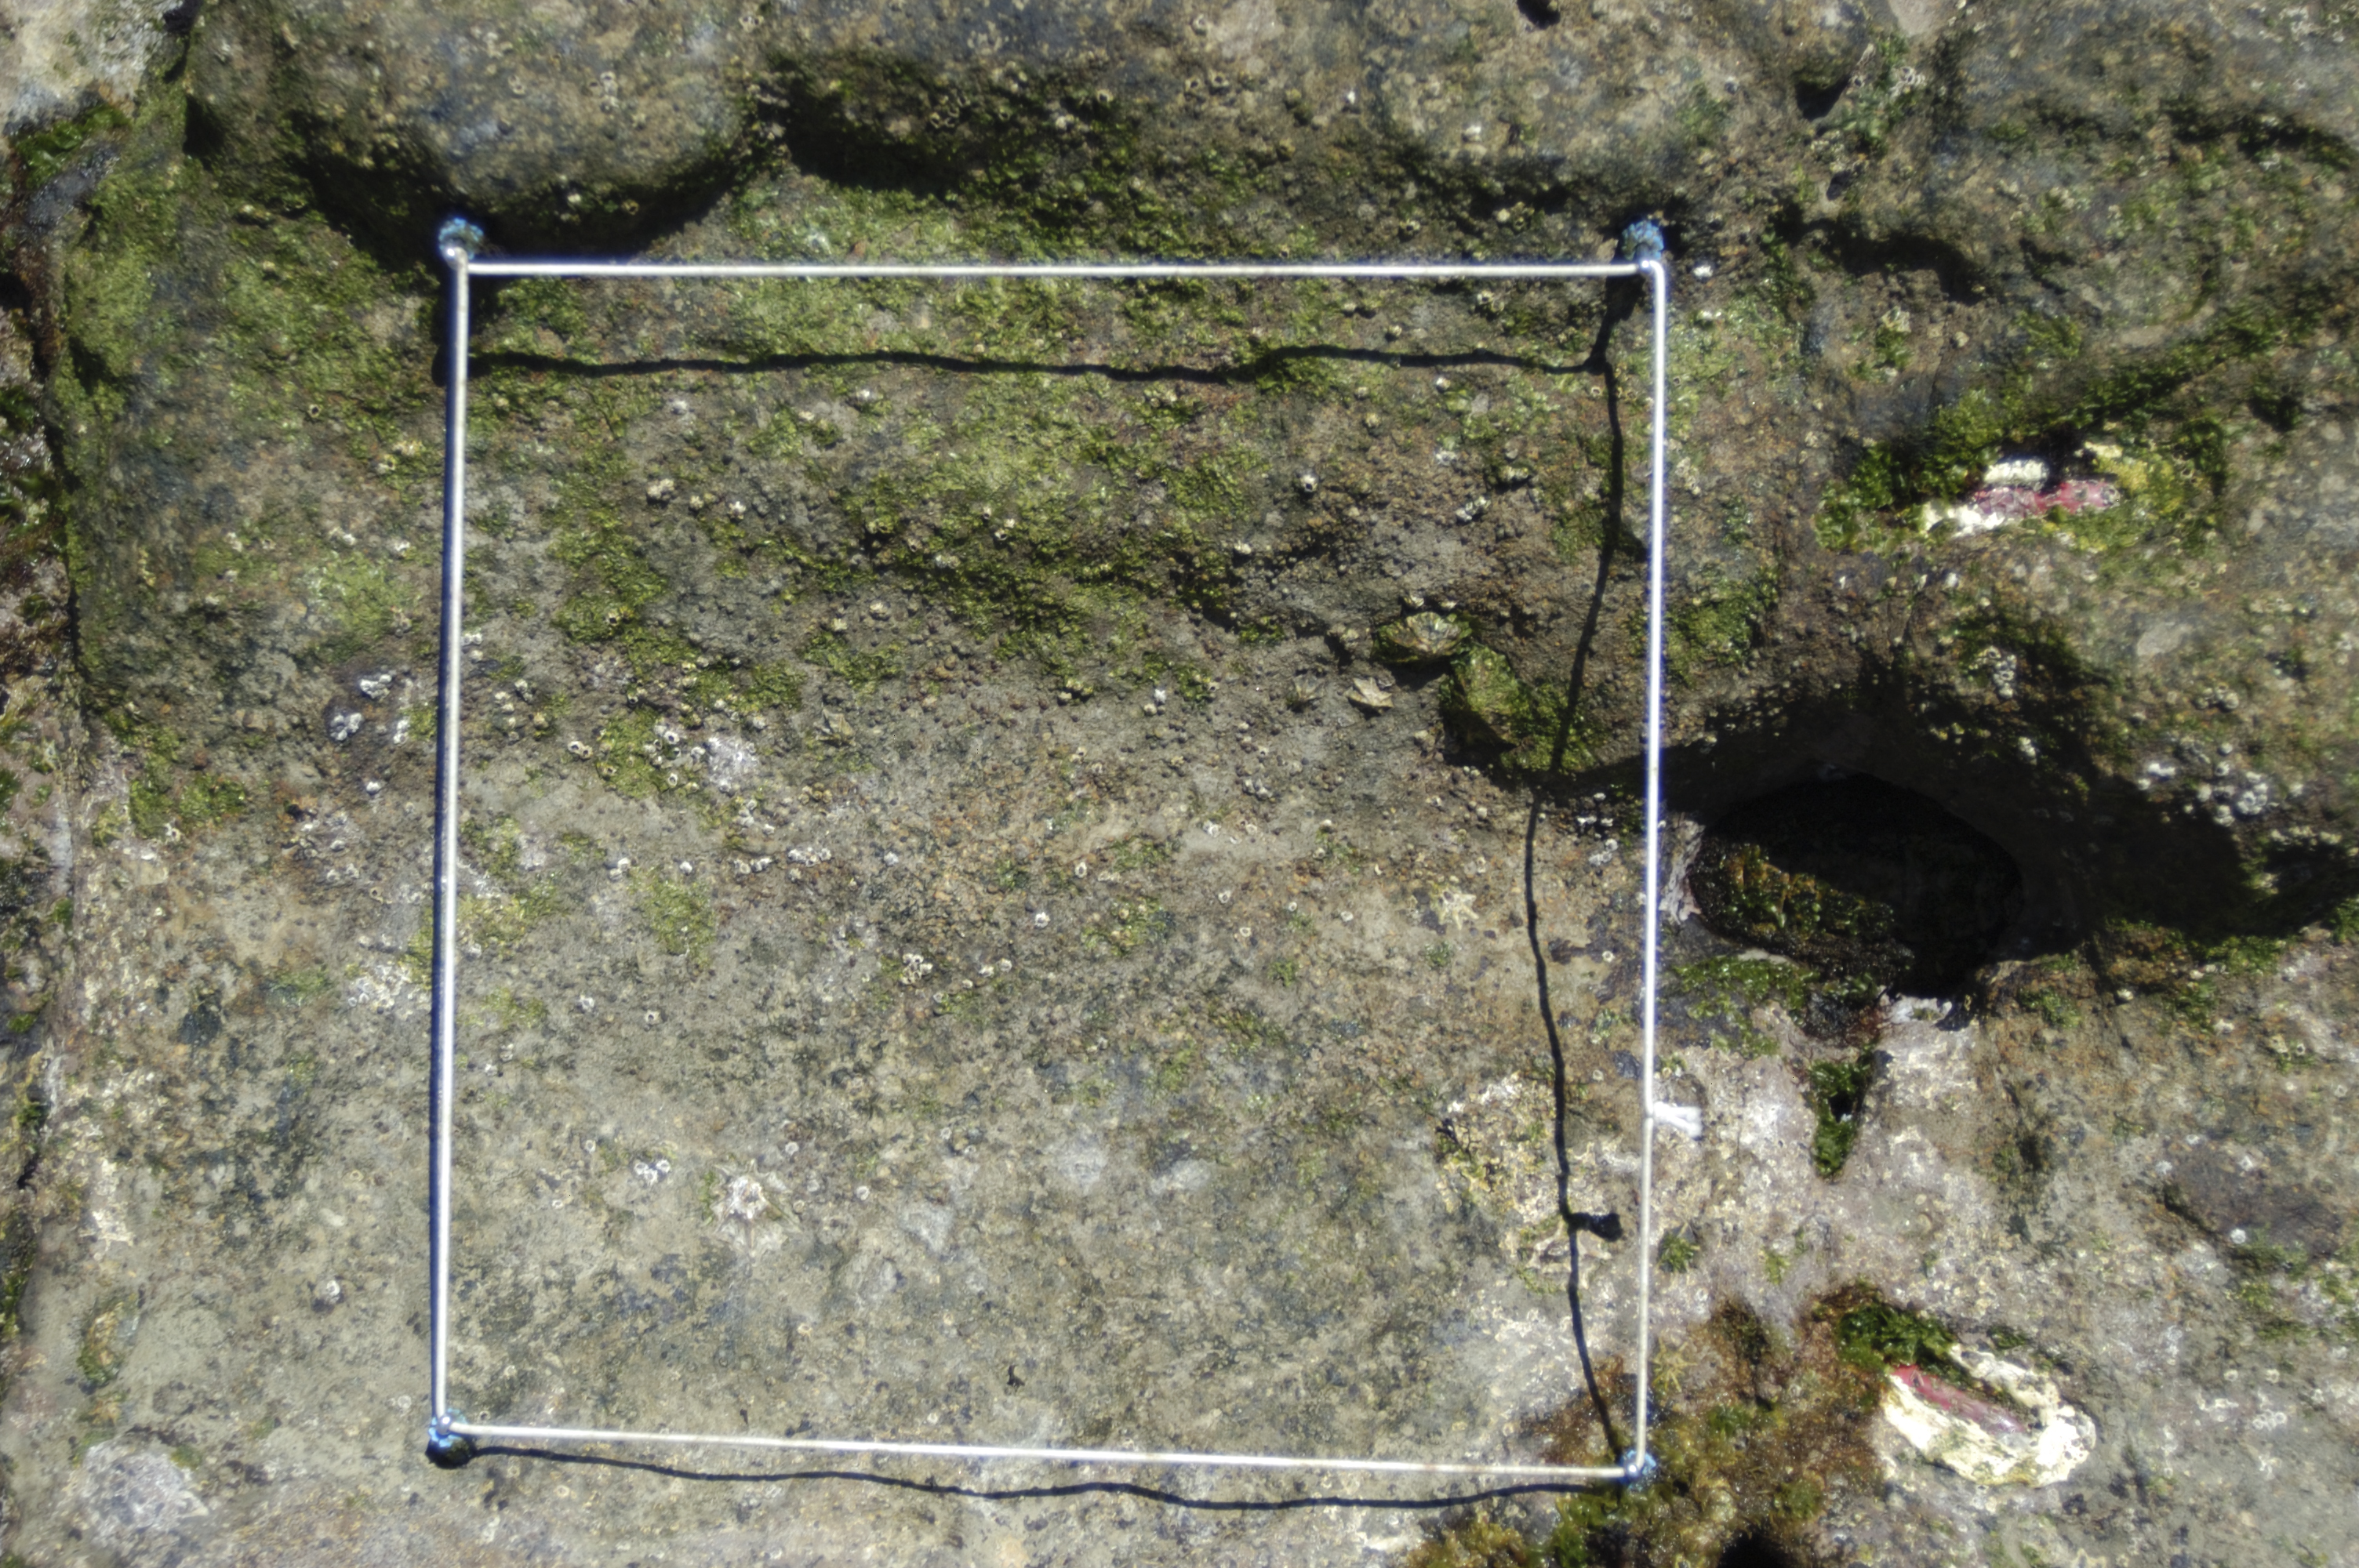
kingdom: Animalia
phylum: Arthropoda
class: Maxillopoda
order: Sessilia
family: Chthamalidae
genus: Chthamalus
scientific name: Chthamalus challengeri
